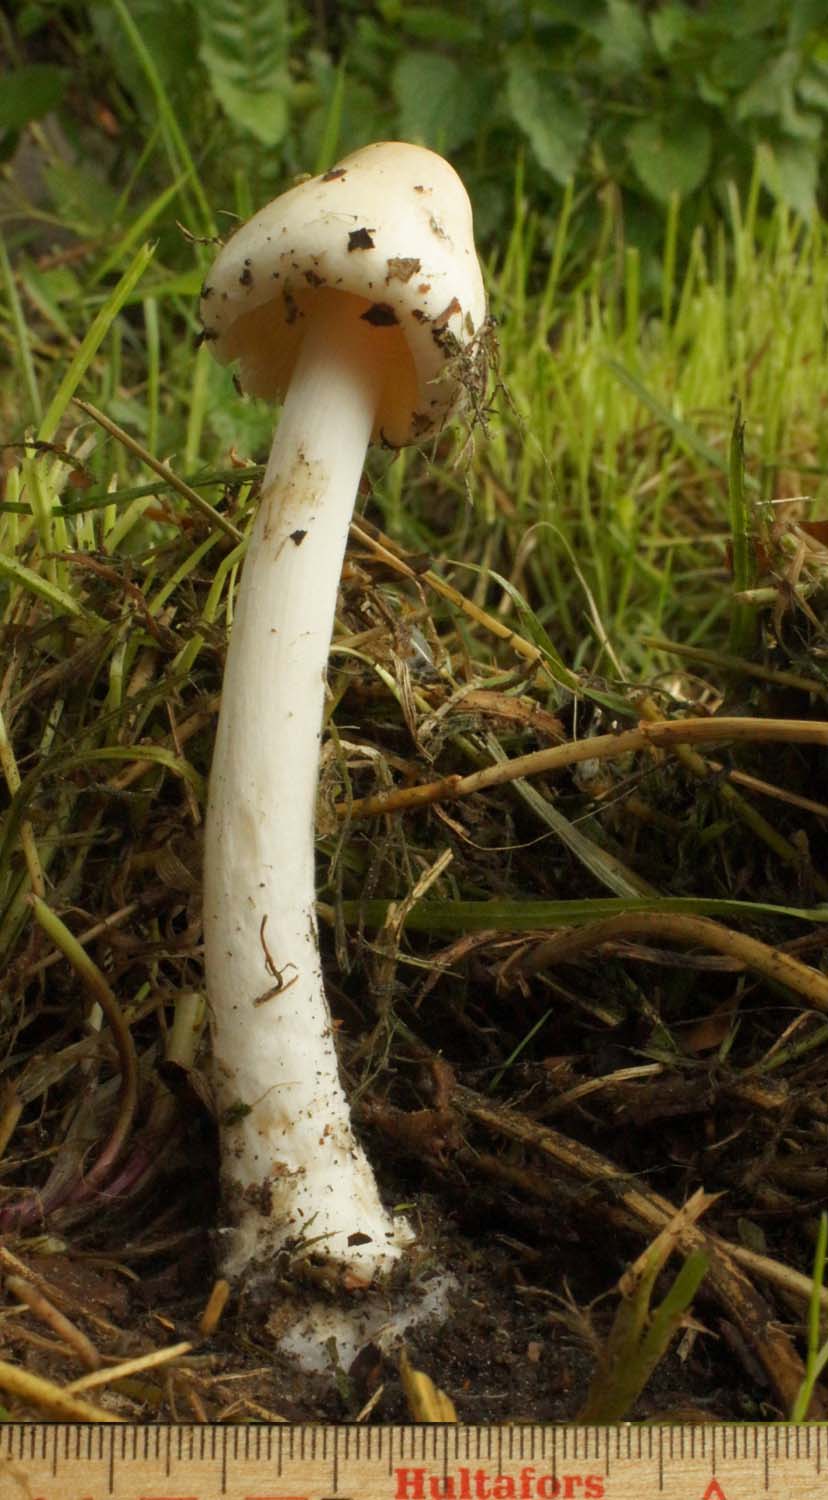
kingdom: Fungi
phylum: Basidiomycota
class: Agaricomycetes
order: Agaricales
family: Pluteaceae
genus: Volvopluteus
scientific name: Volvopluteus gloiocephalus
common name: høj posesvamp
